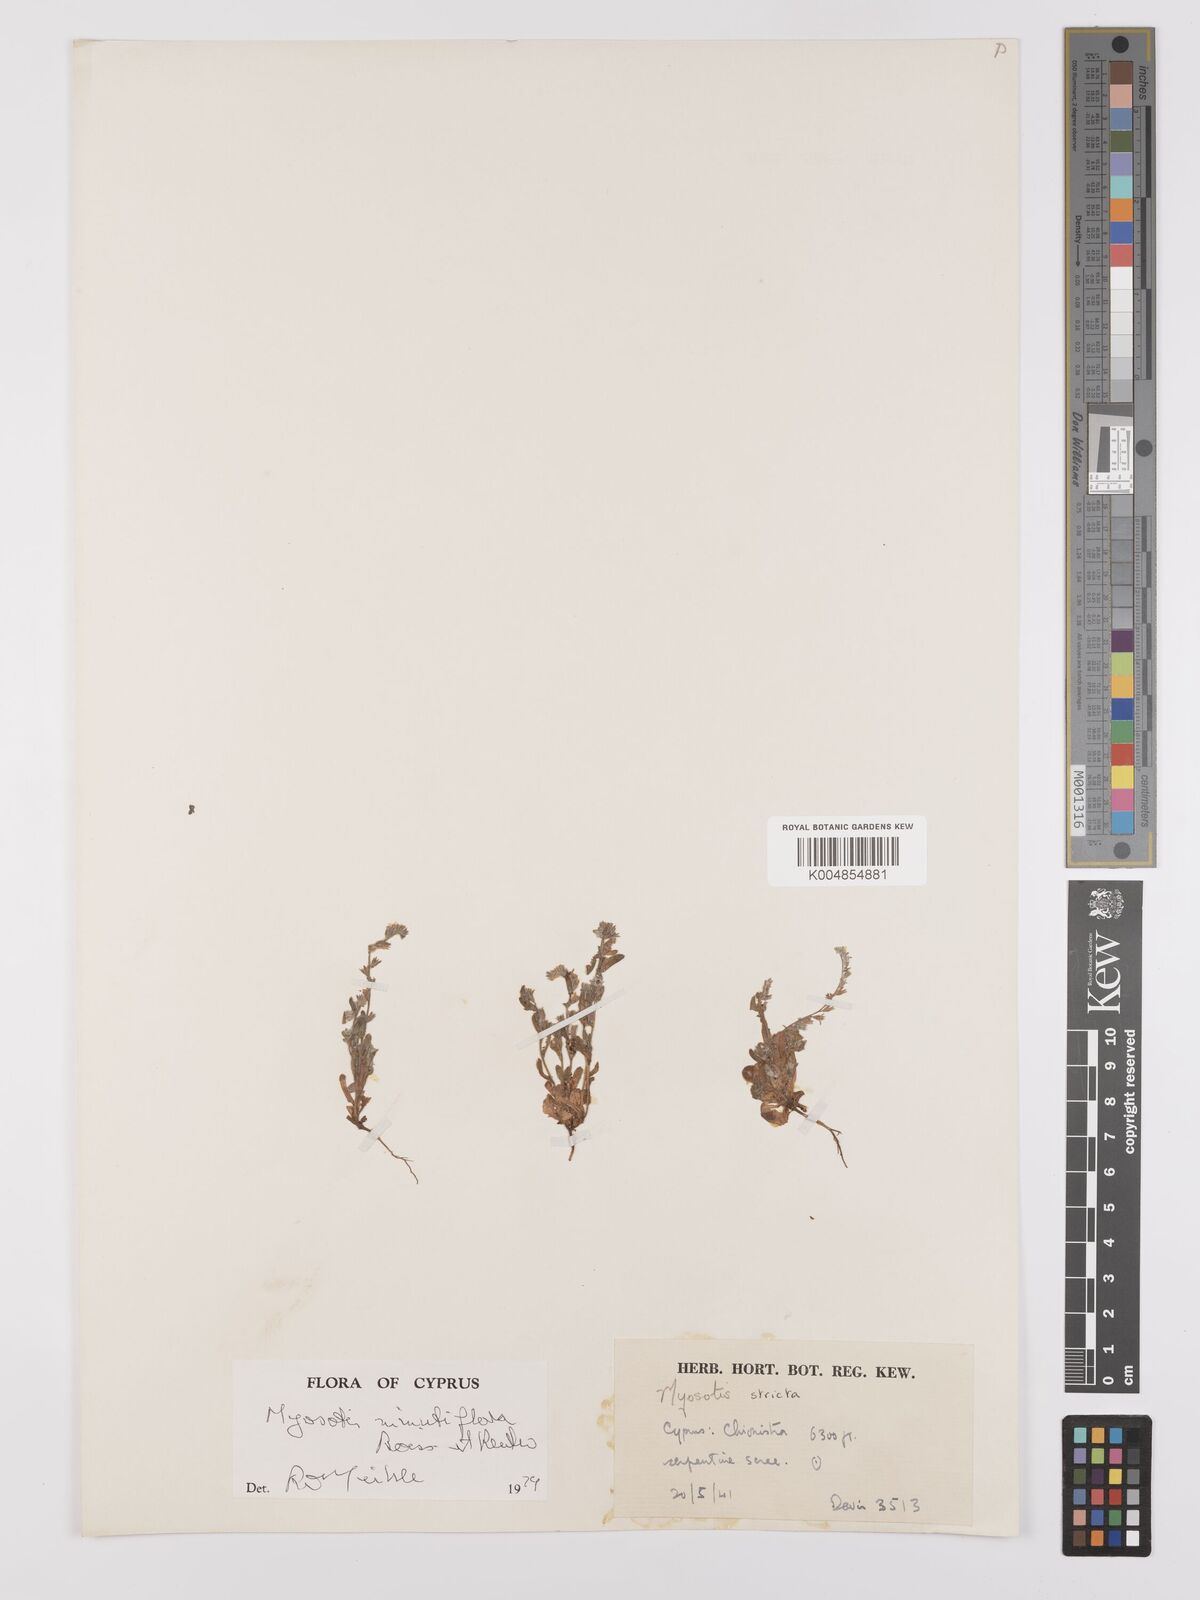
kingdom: Plantae
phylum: Tracheophyta
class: Magnoliopsida
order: Boraginales
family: Boraginaceae
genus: Myosotis
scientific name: Myosotis minutiflora
